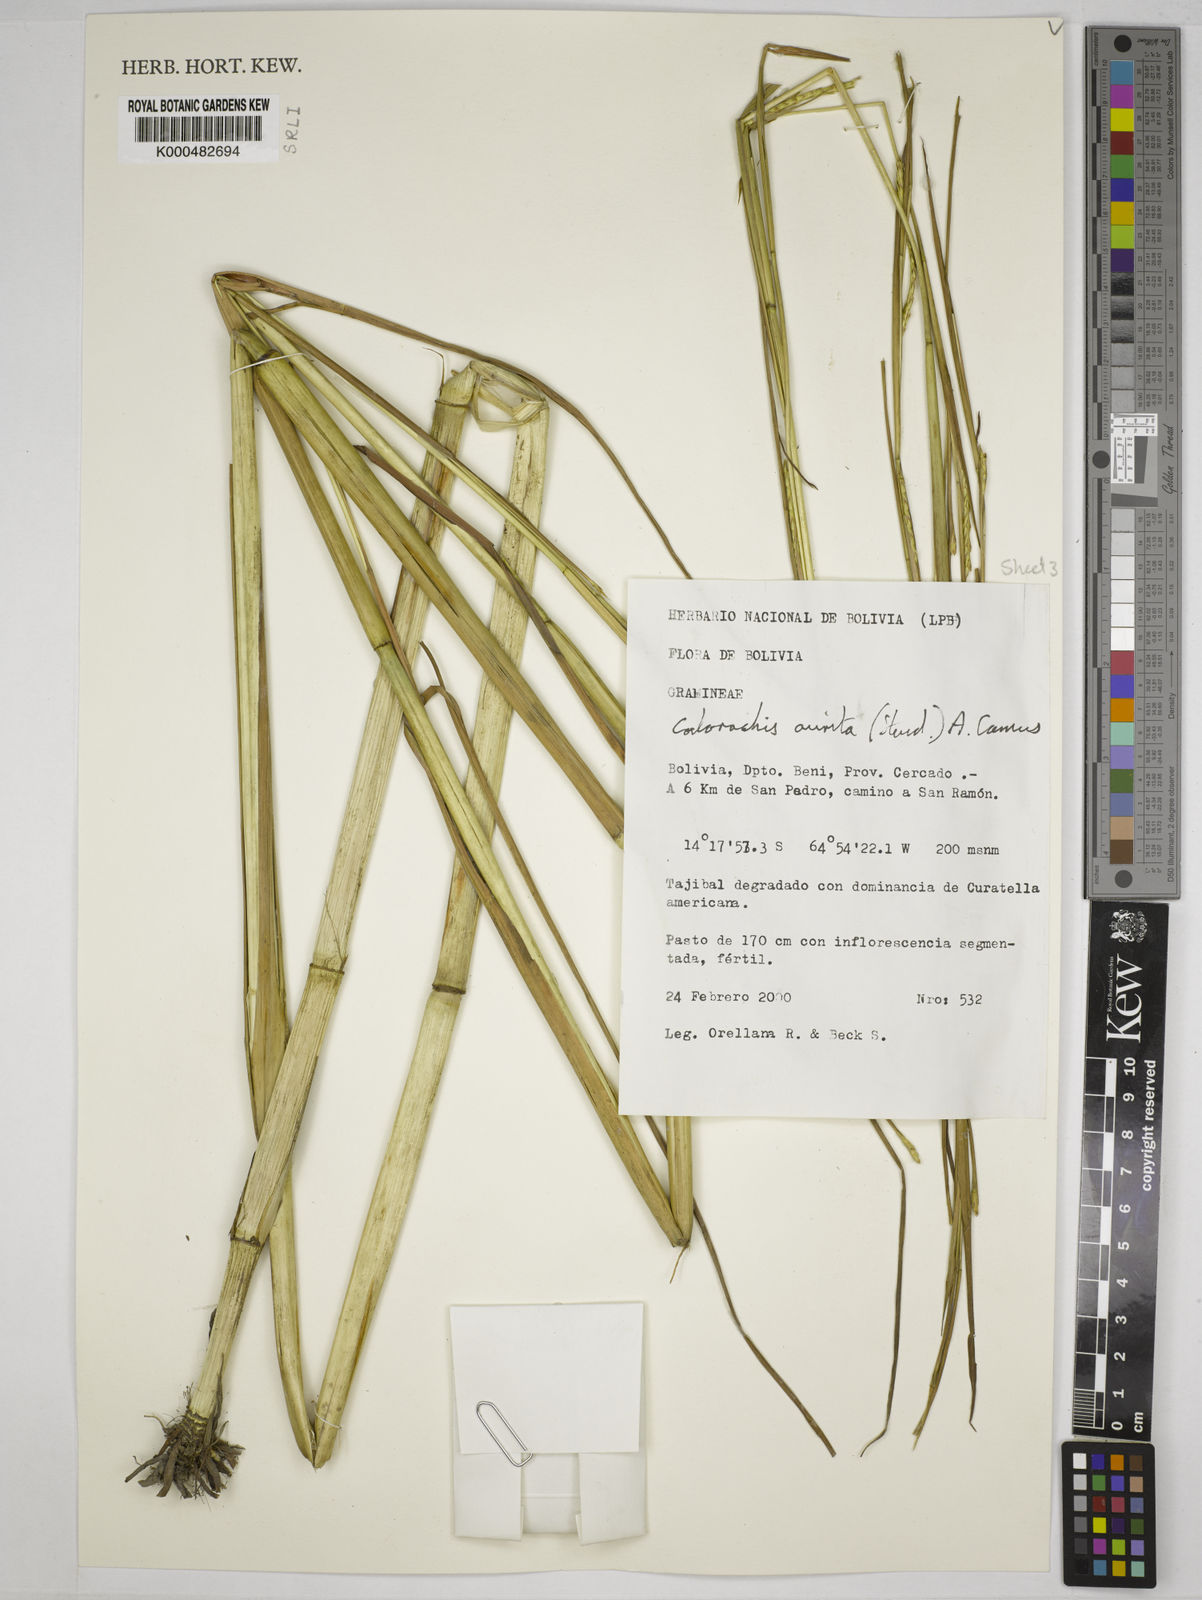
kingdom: Plantae
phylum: Tracheophyta
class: Liliopsida
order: Poales
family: Poaceae
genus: Rottboellia
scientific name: Rottboellia aurita
